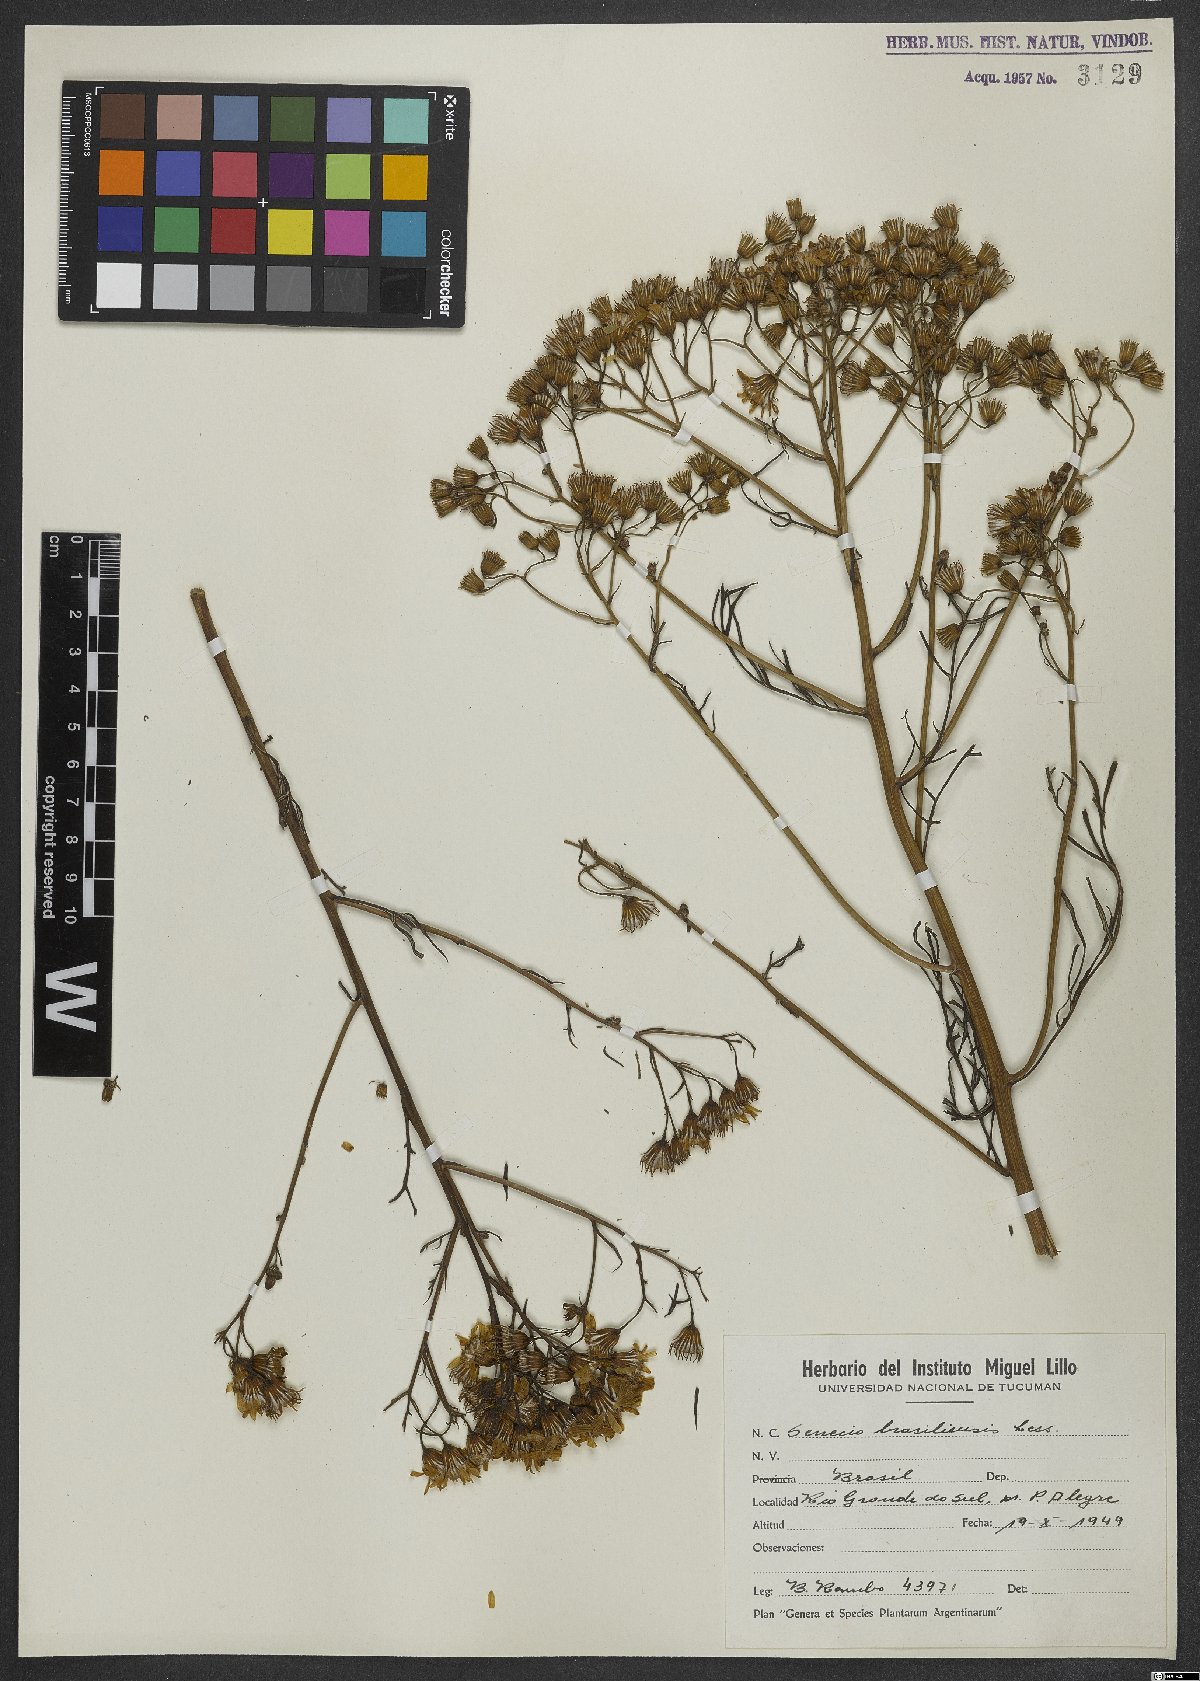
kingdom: Plantae
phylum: Tracheophyta
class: Magnoliopsida
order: Asterales
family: Asteraceae
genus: Senecio
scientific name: Senecio brasiliensis
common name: Hemp-leaf ragwort
